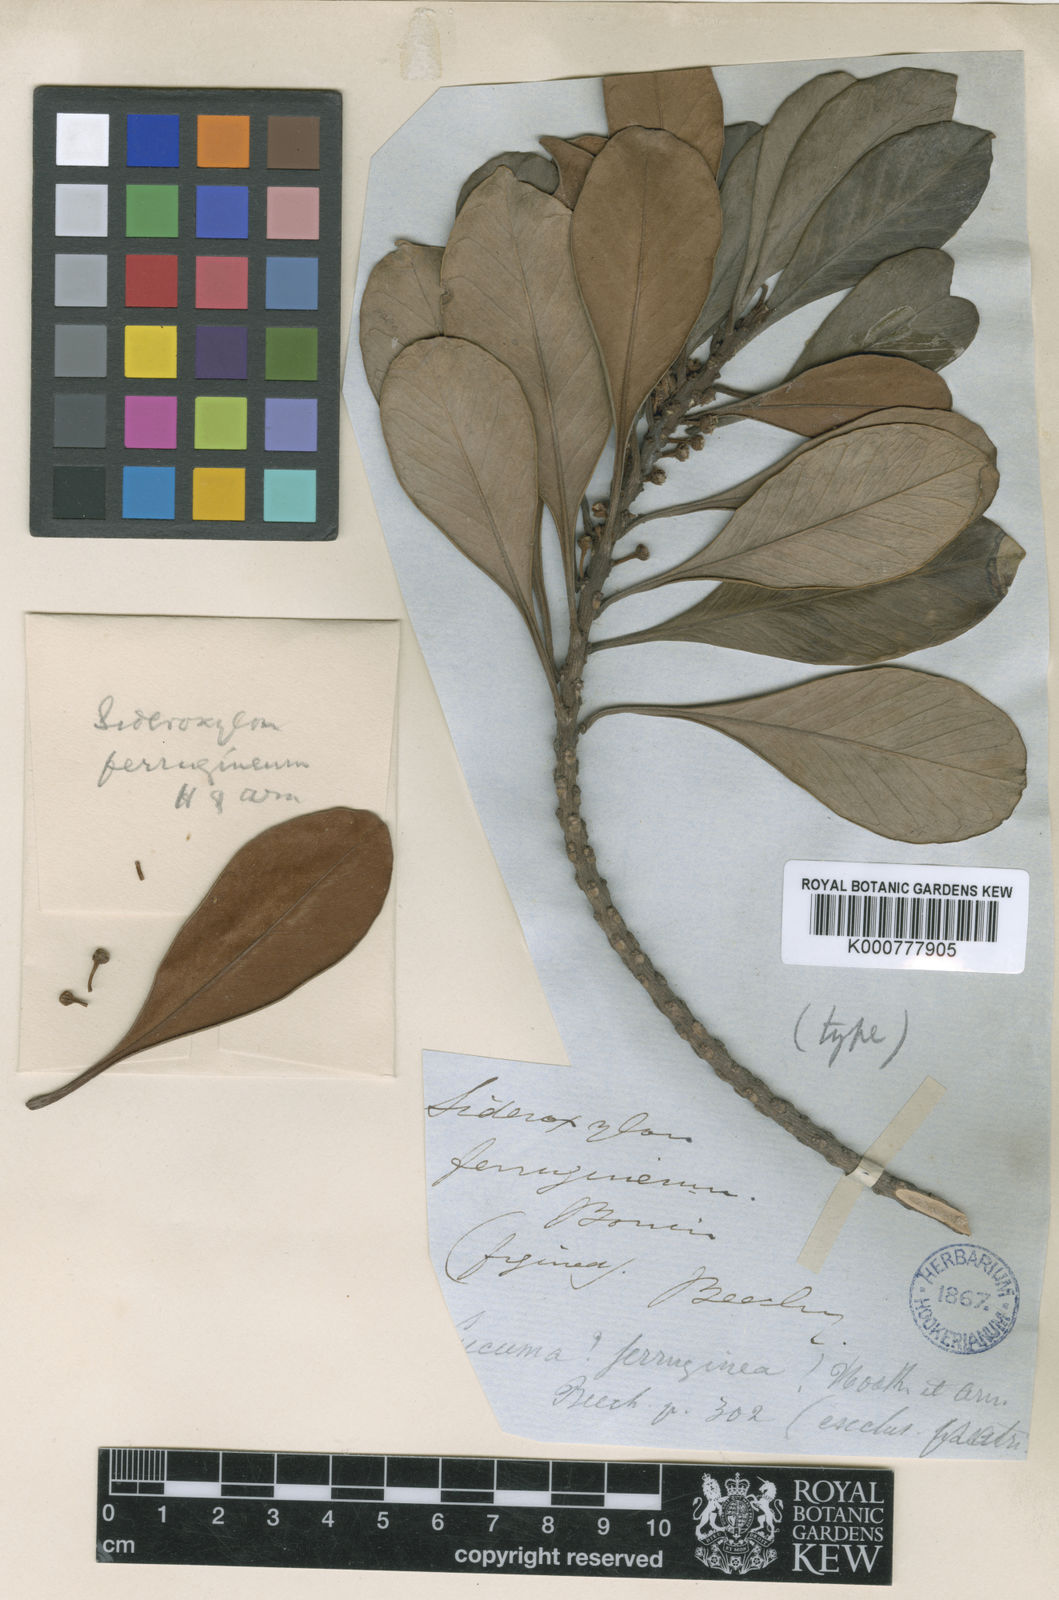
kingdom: Plantae
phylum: Tracheophyta
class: Magnoliopsida
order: Ericales
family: Sapotaceae
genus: Planchonella
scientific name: Planchonella obovata
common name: Black-ash
